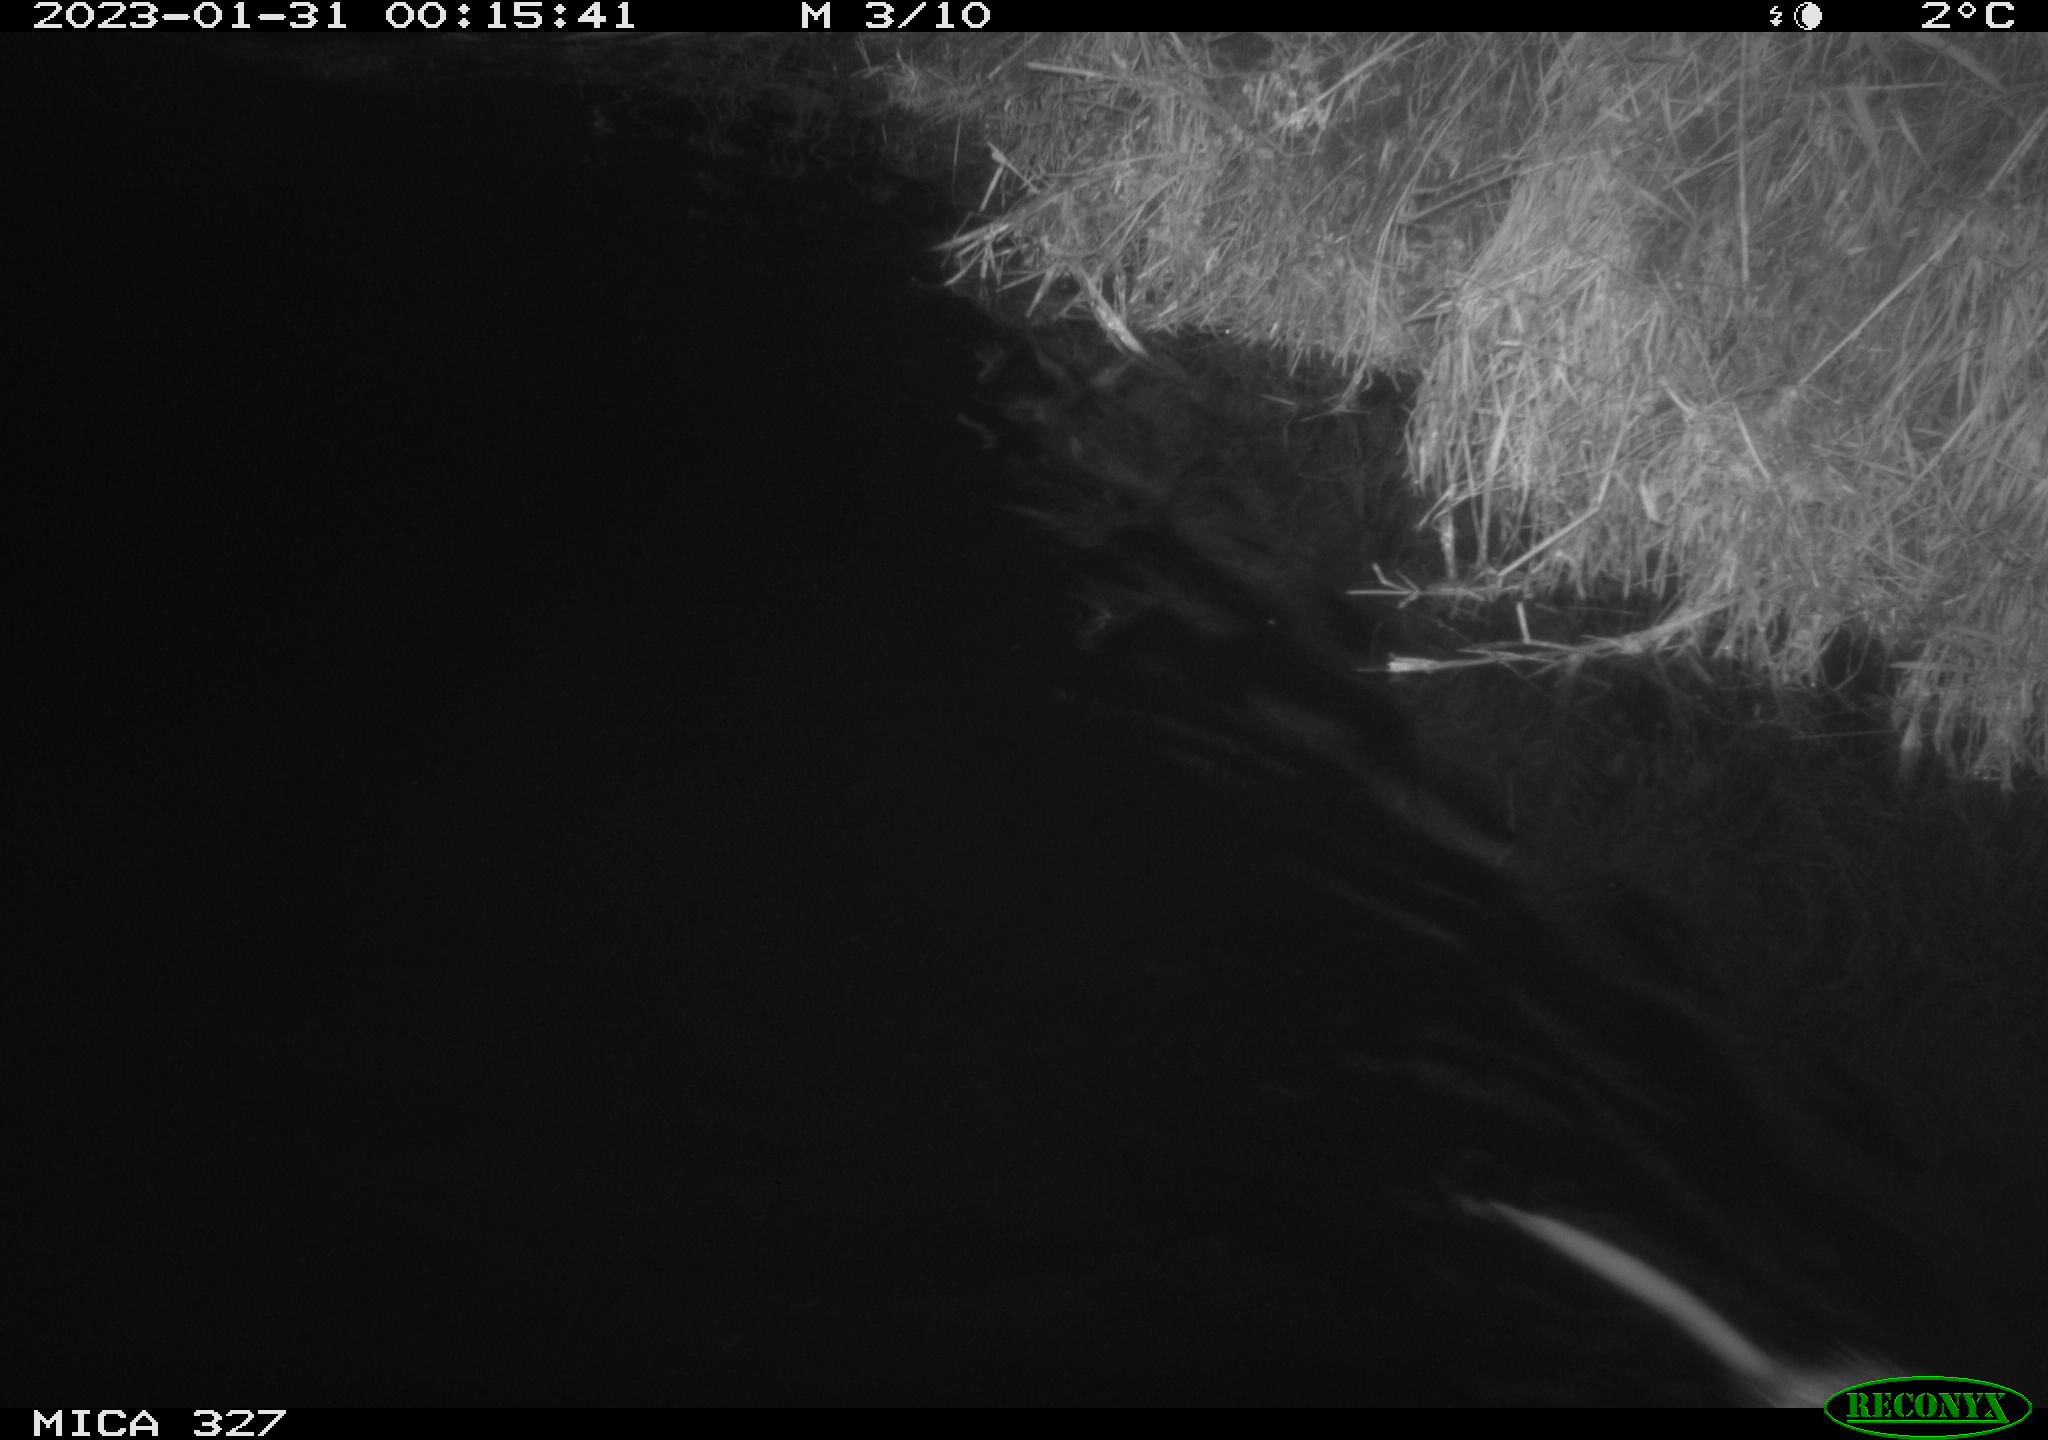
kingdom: Animalia
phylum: Chordata
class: Mammalia
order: Rodentia
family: Cricetidae
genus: Ondatra
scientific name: Ondatra zibethicus
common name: Muskrat
